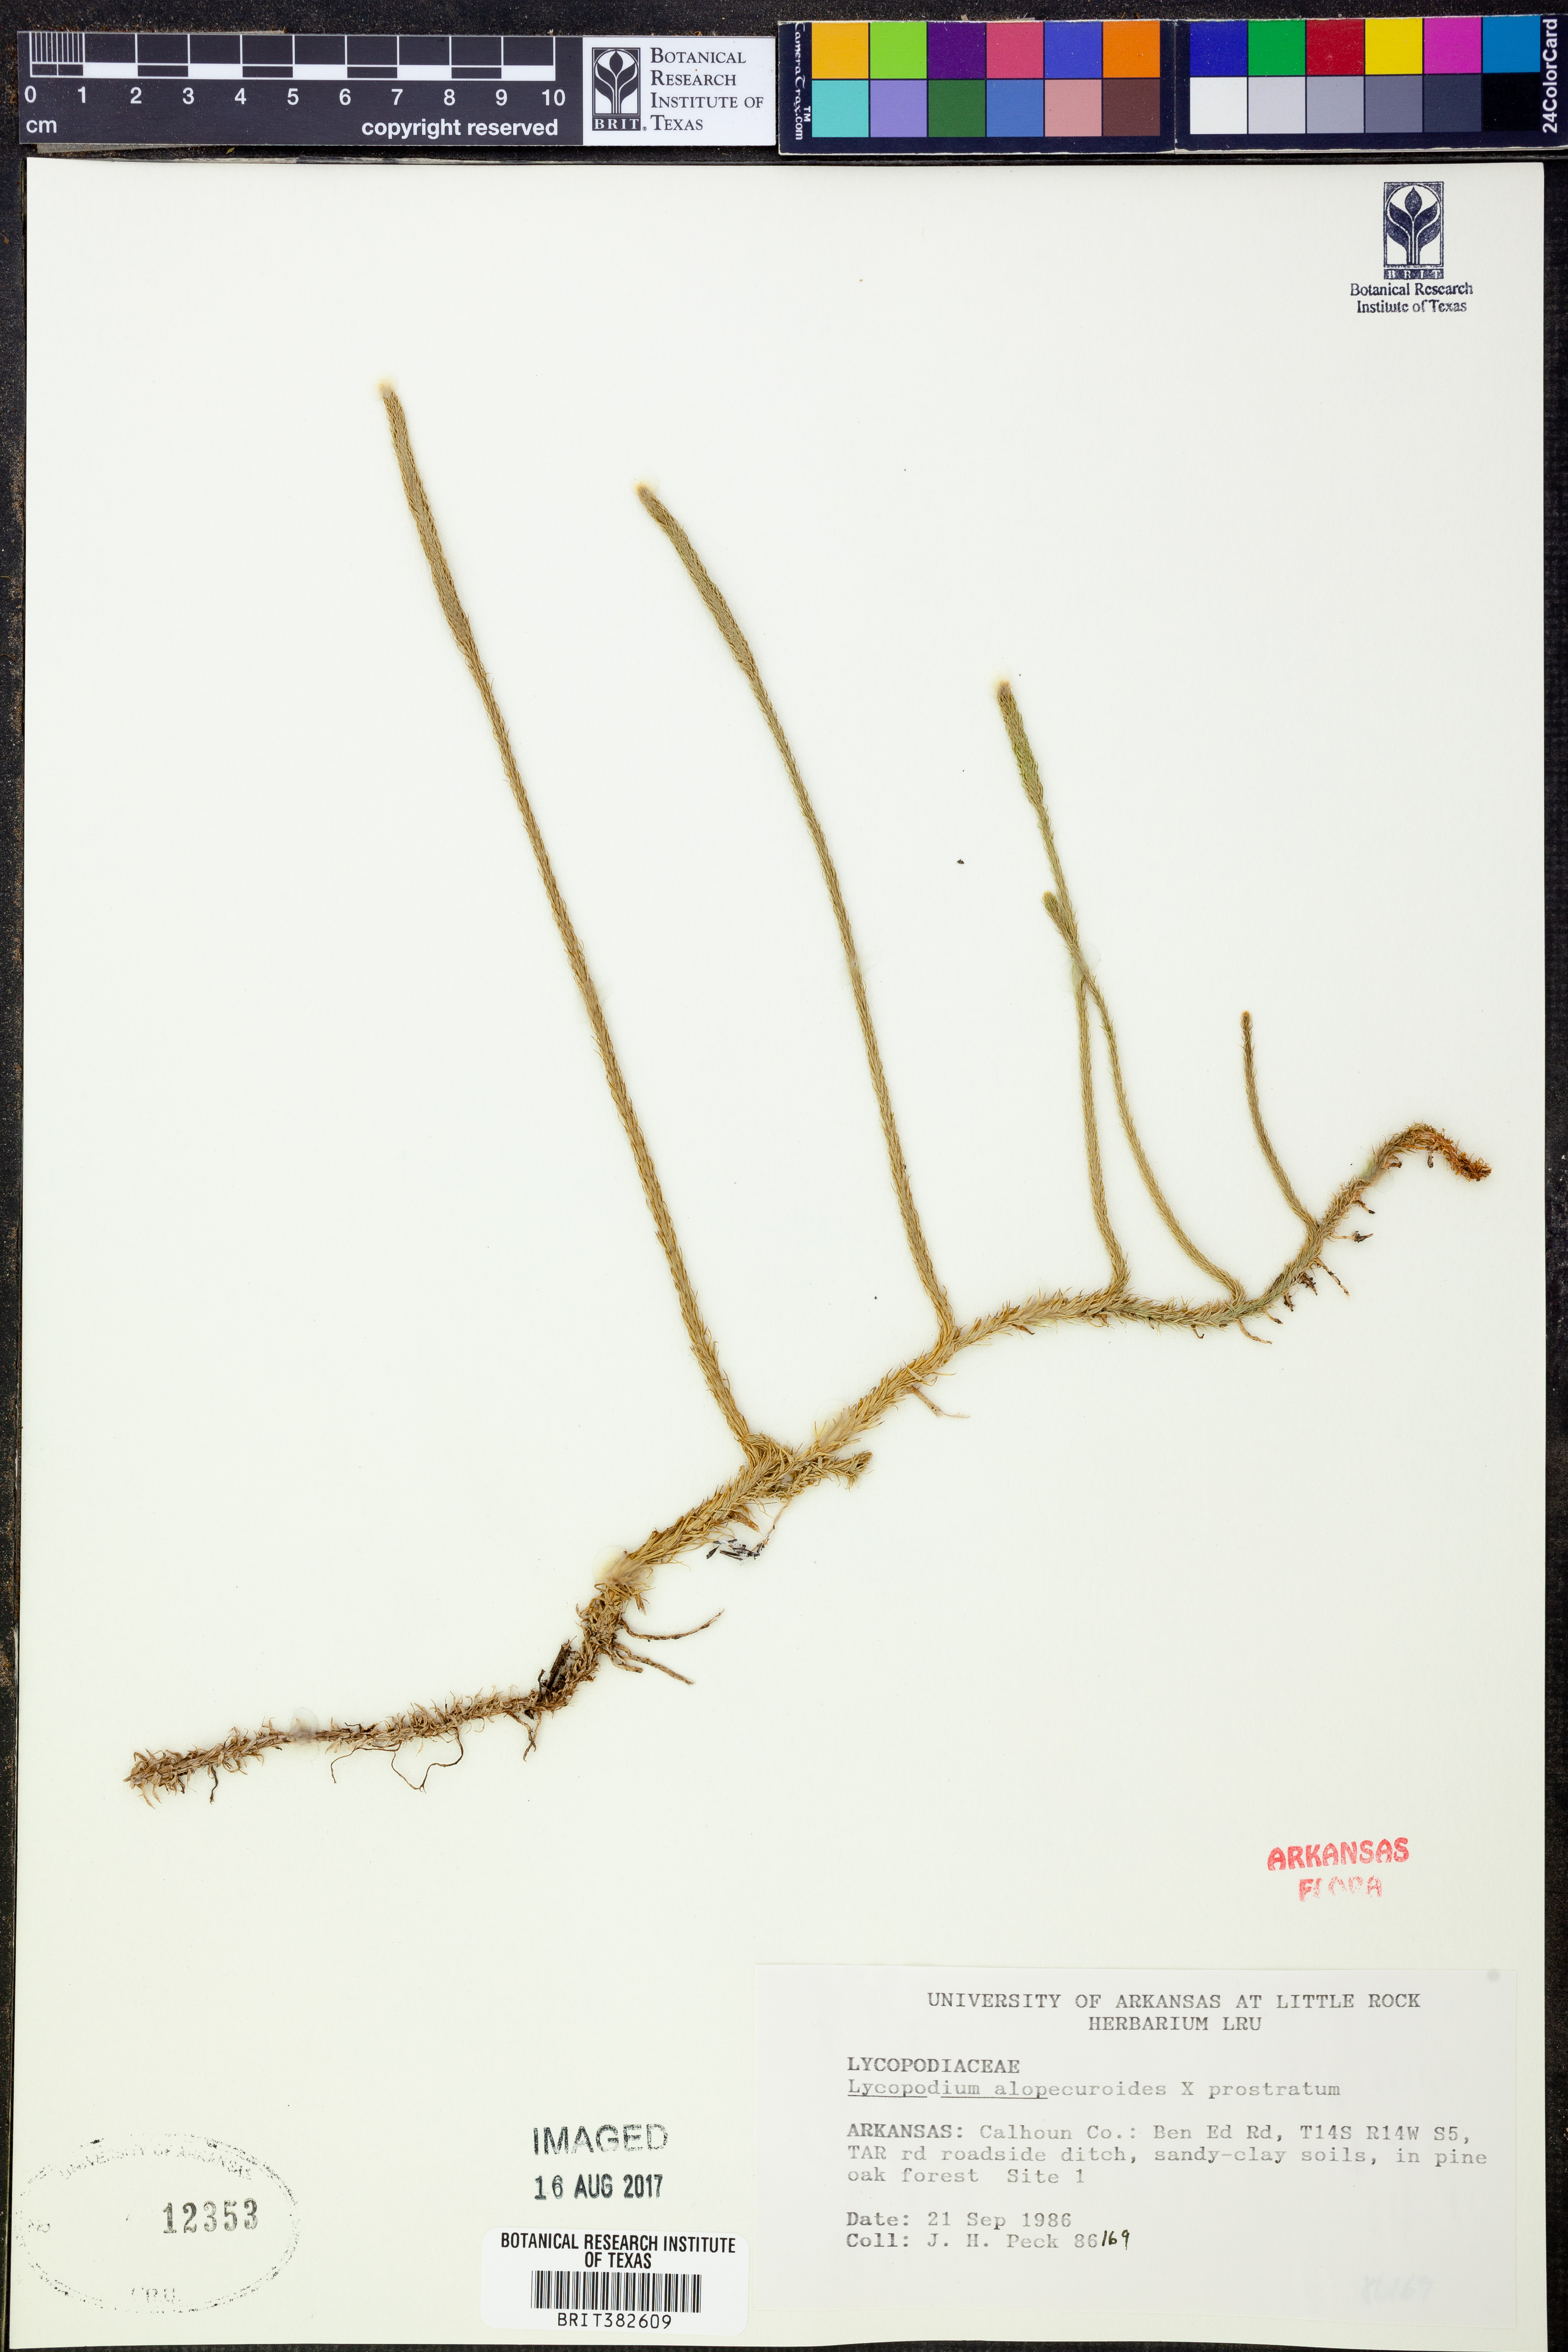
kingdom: Plantae
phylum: Tracheophyta
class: Lycopodiopsida
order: Lycopodiales
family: Lycopodiaceae
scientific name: Lycopodiaceae
